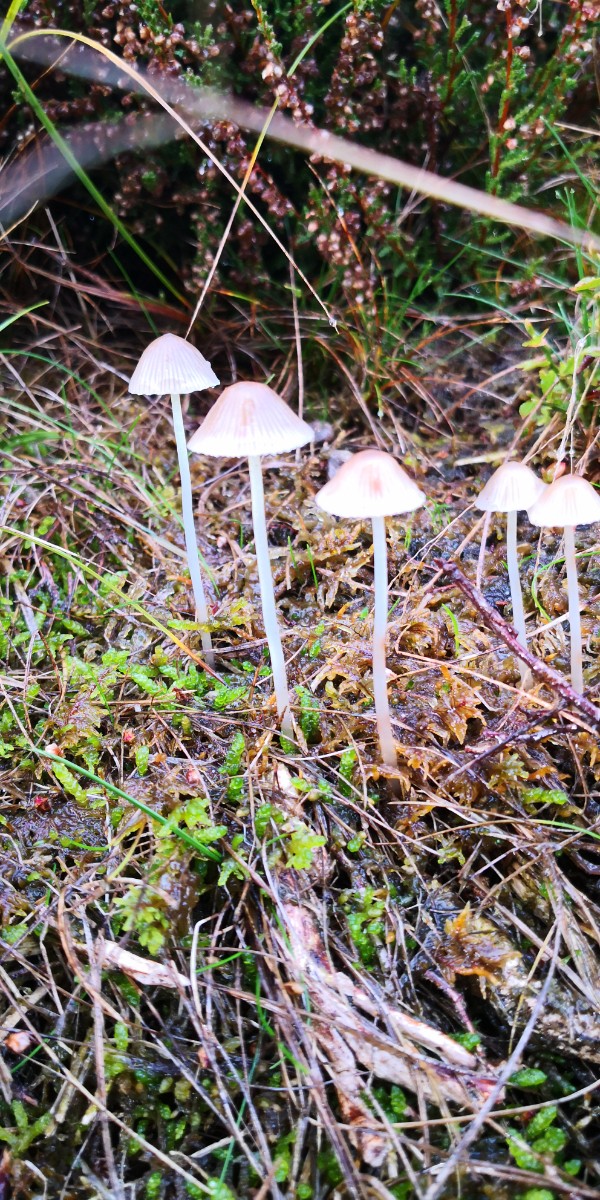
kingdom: Fungi
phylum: Basidiomycota
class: Agaricomycetes
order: Agaricales
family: Mycenaceae
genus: Mycena
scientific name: Mycena epipterygia
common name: gulstokket huesvamp
